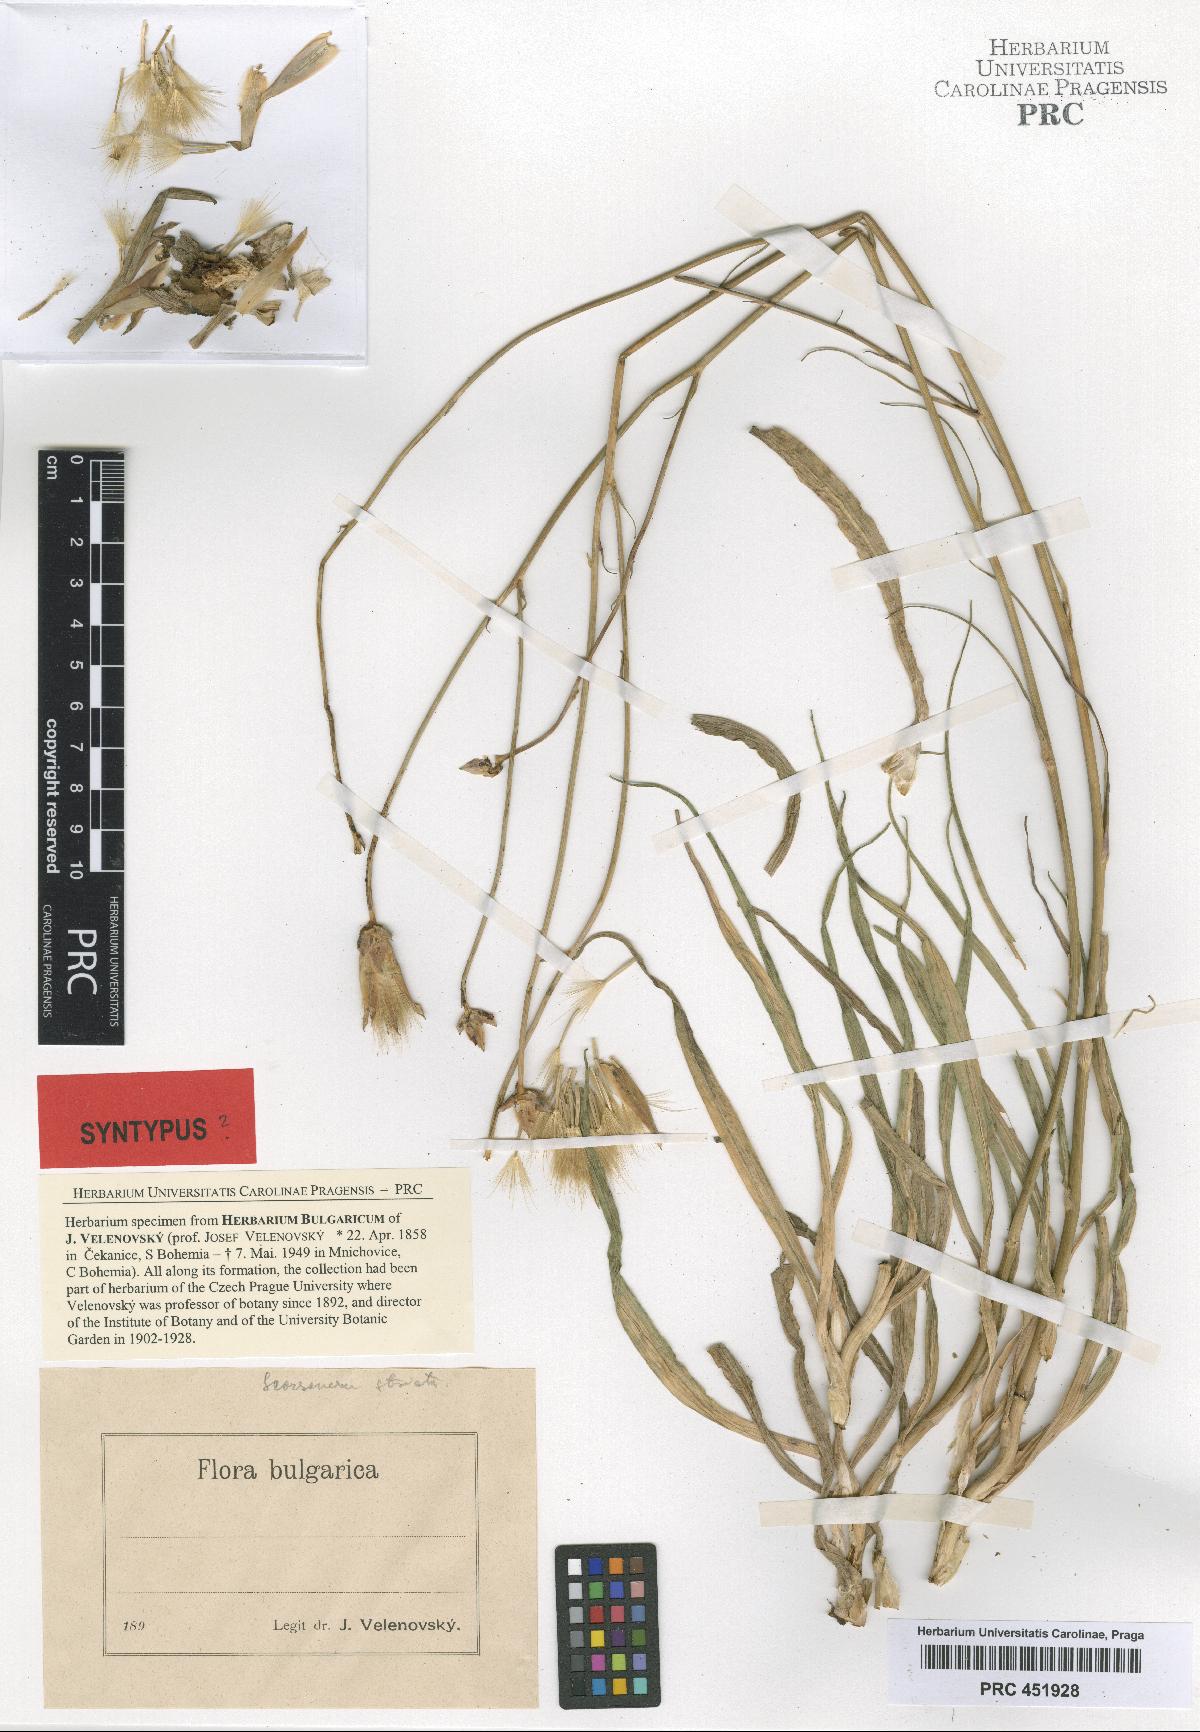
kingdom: Plantae
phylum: Tracheophyta
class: Magnoliopsida
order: Asterales
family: Asteraceae
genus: Pseudopodospermum
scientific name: Pseudopodospermum tauricum
